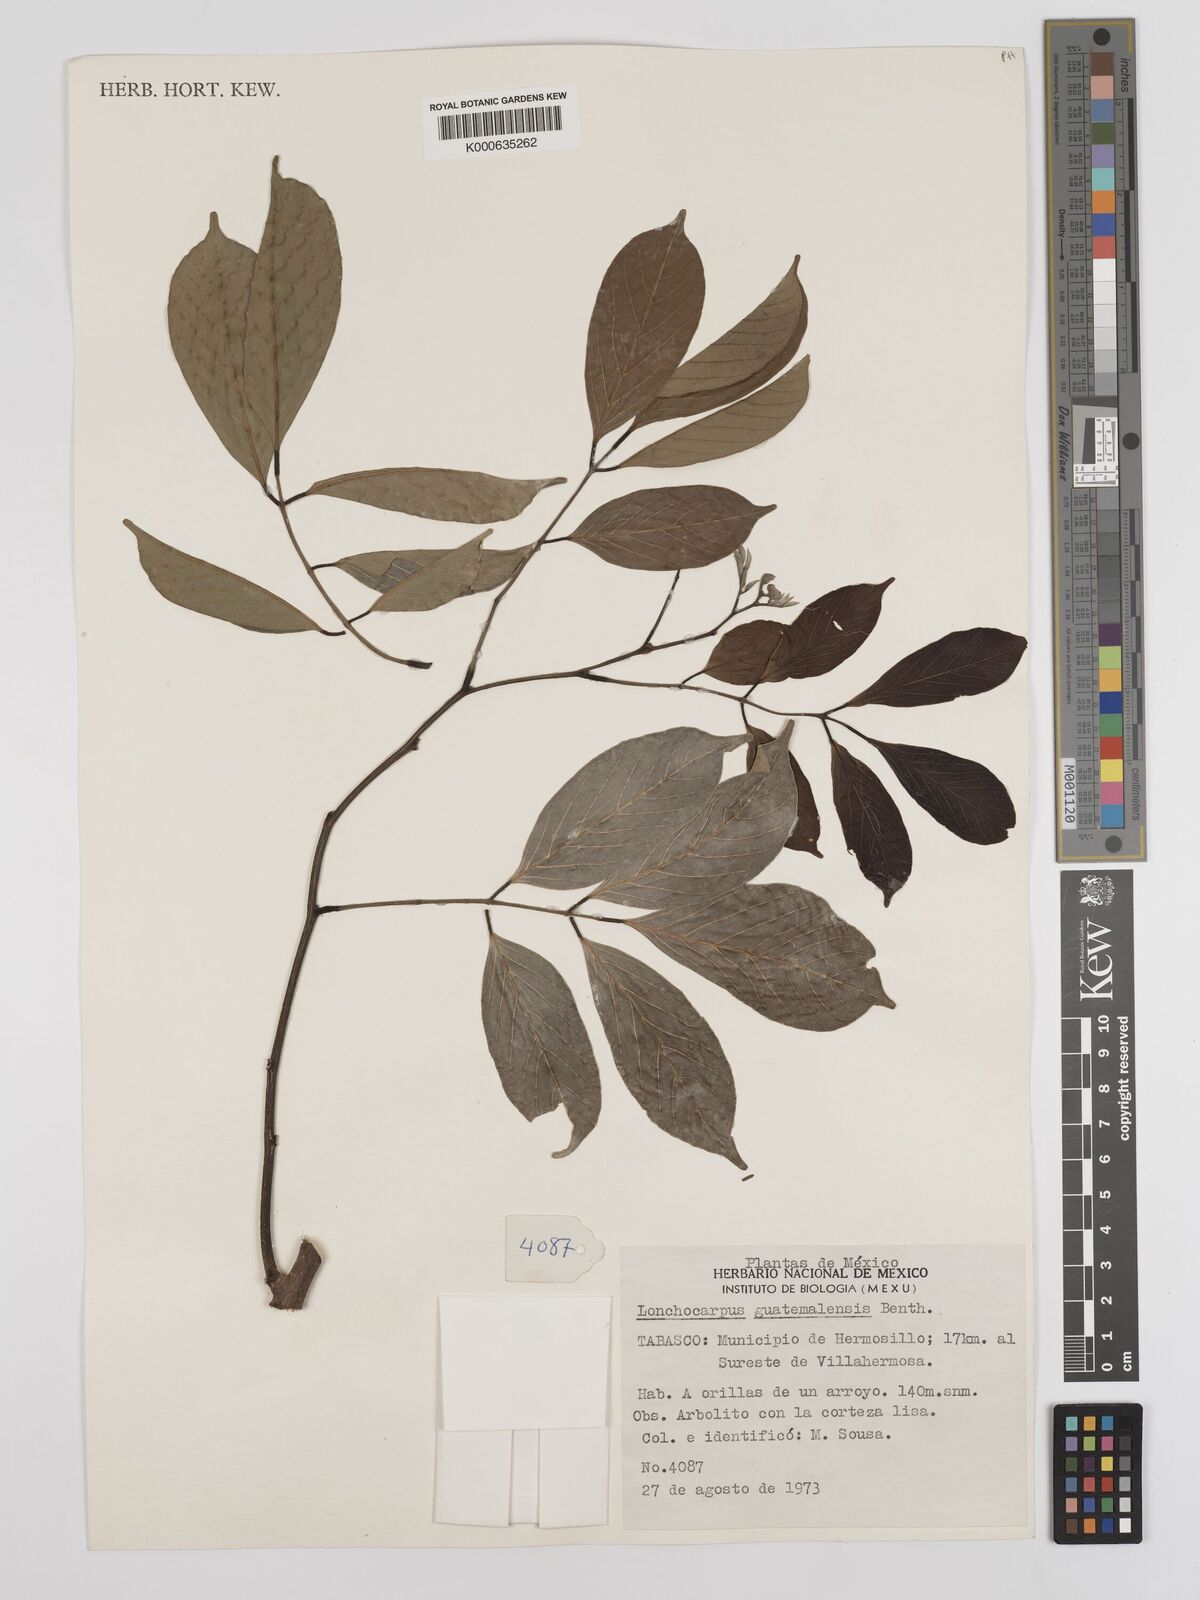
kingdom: Plantae
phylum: Tracheophyta
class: Magnoliopsida
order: Fabales
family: Fabaceae
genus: Lonchocarpus
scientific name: Lonchocarpus guatemalensis
